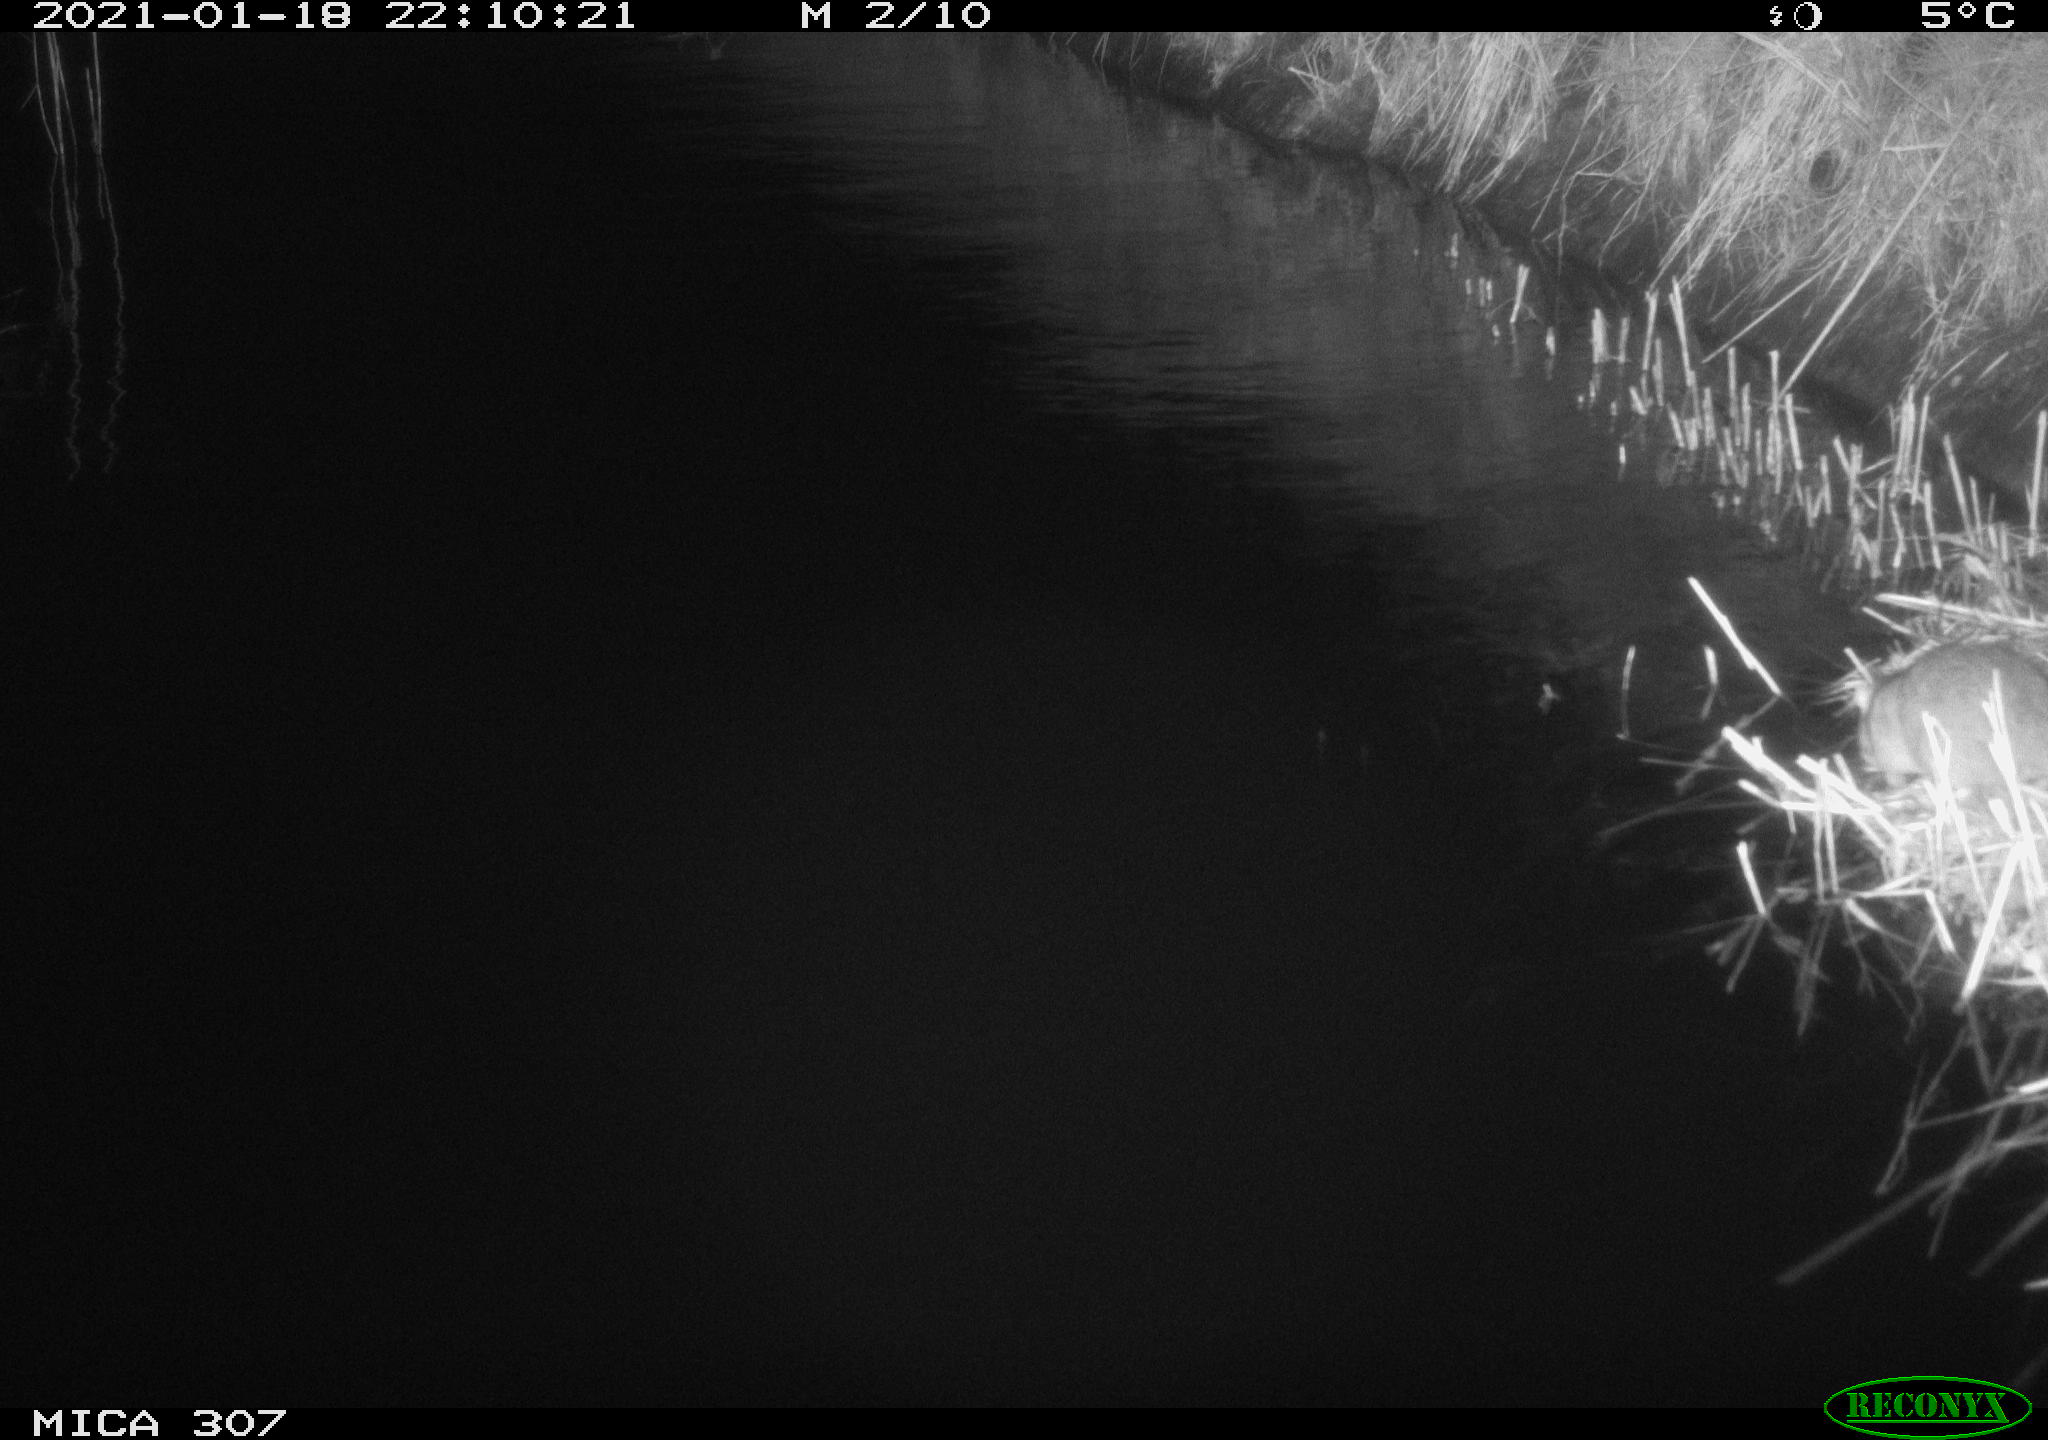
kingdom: Animalia
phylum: Chordata
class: Mammalia
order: Rodentia
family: Muridae
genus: Rattus
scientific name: Rattus norvegicus
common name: Brown rat
